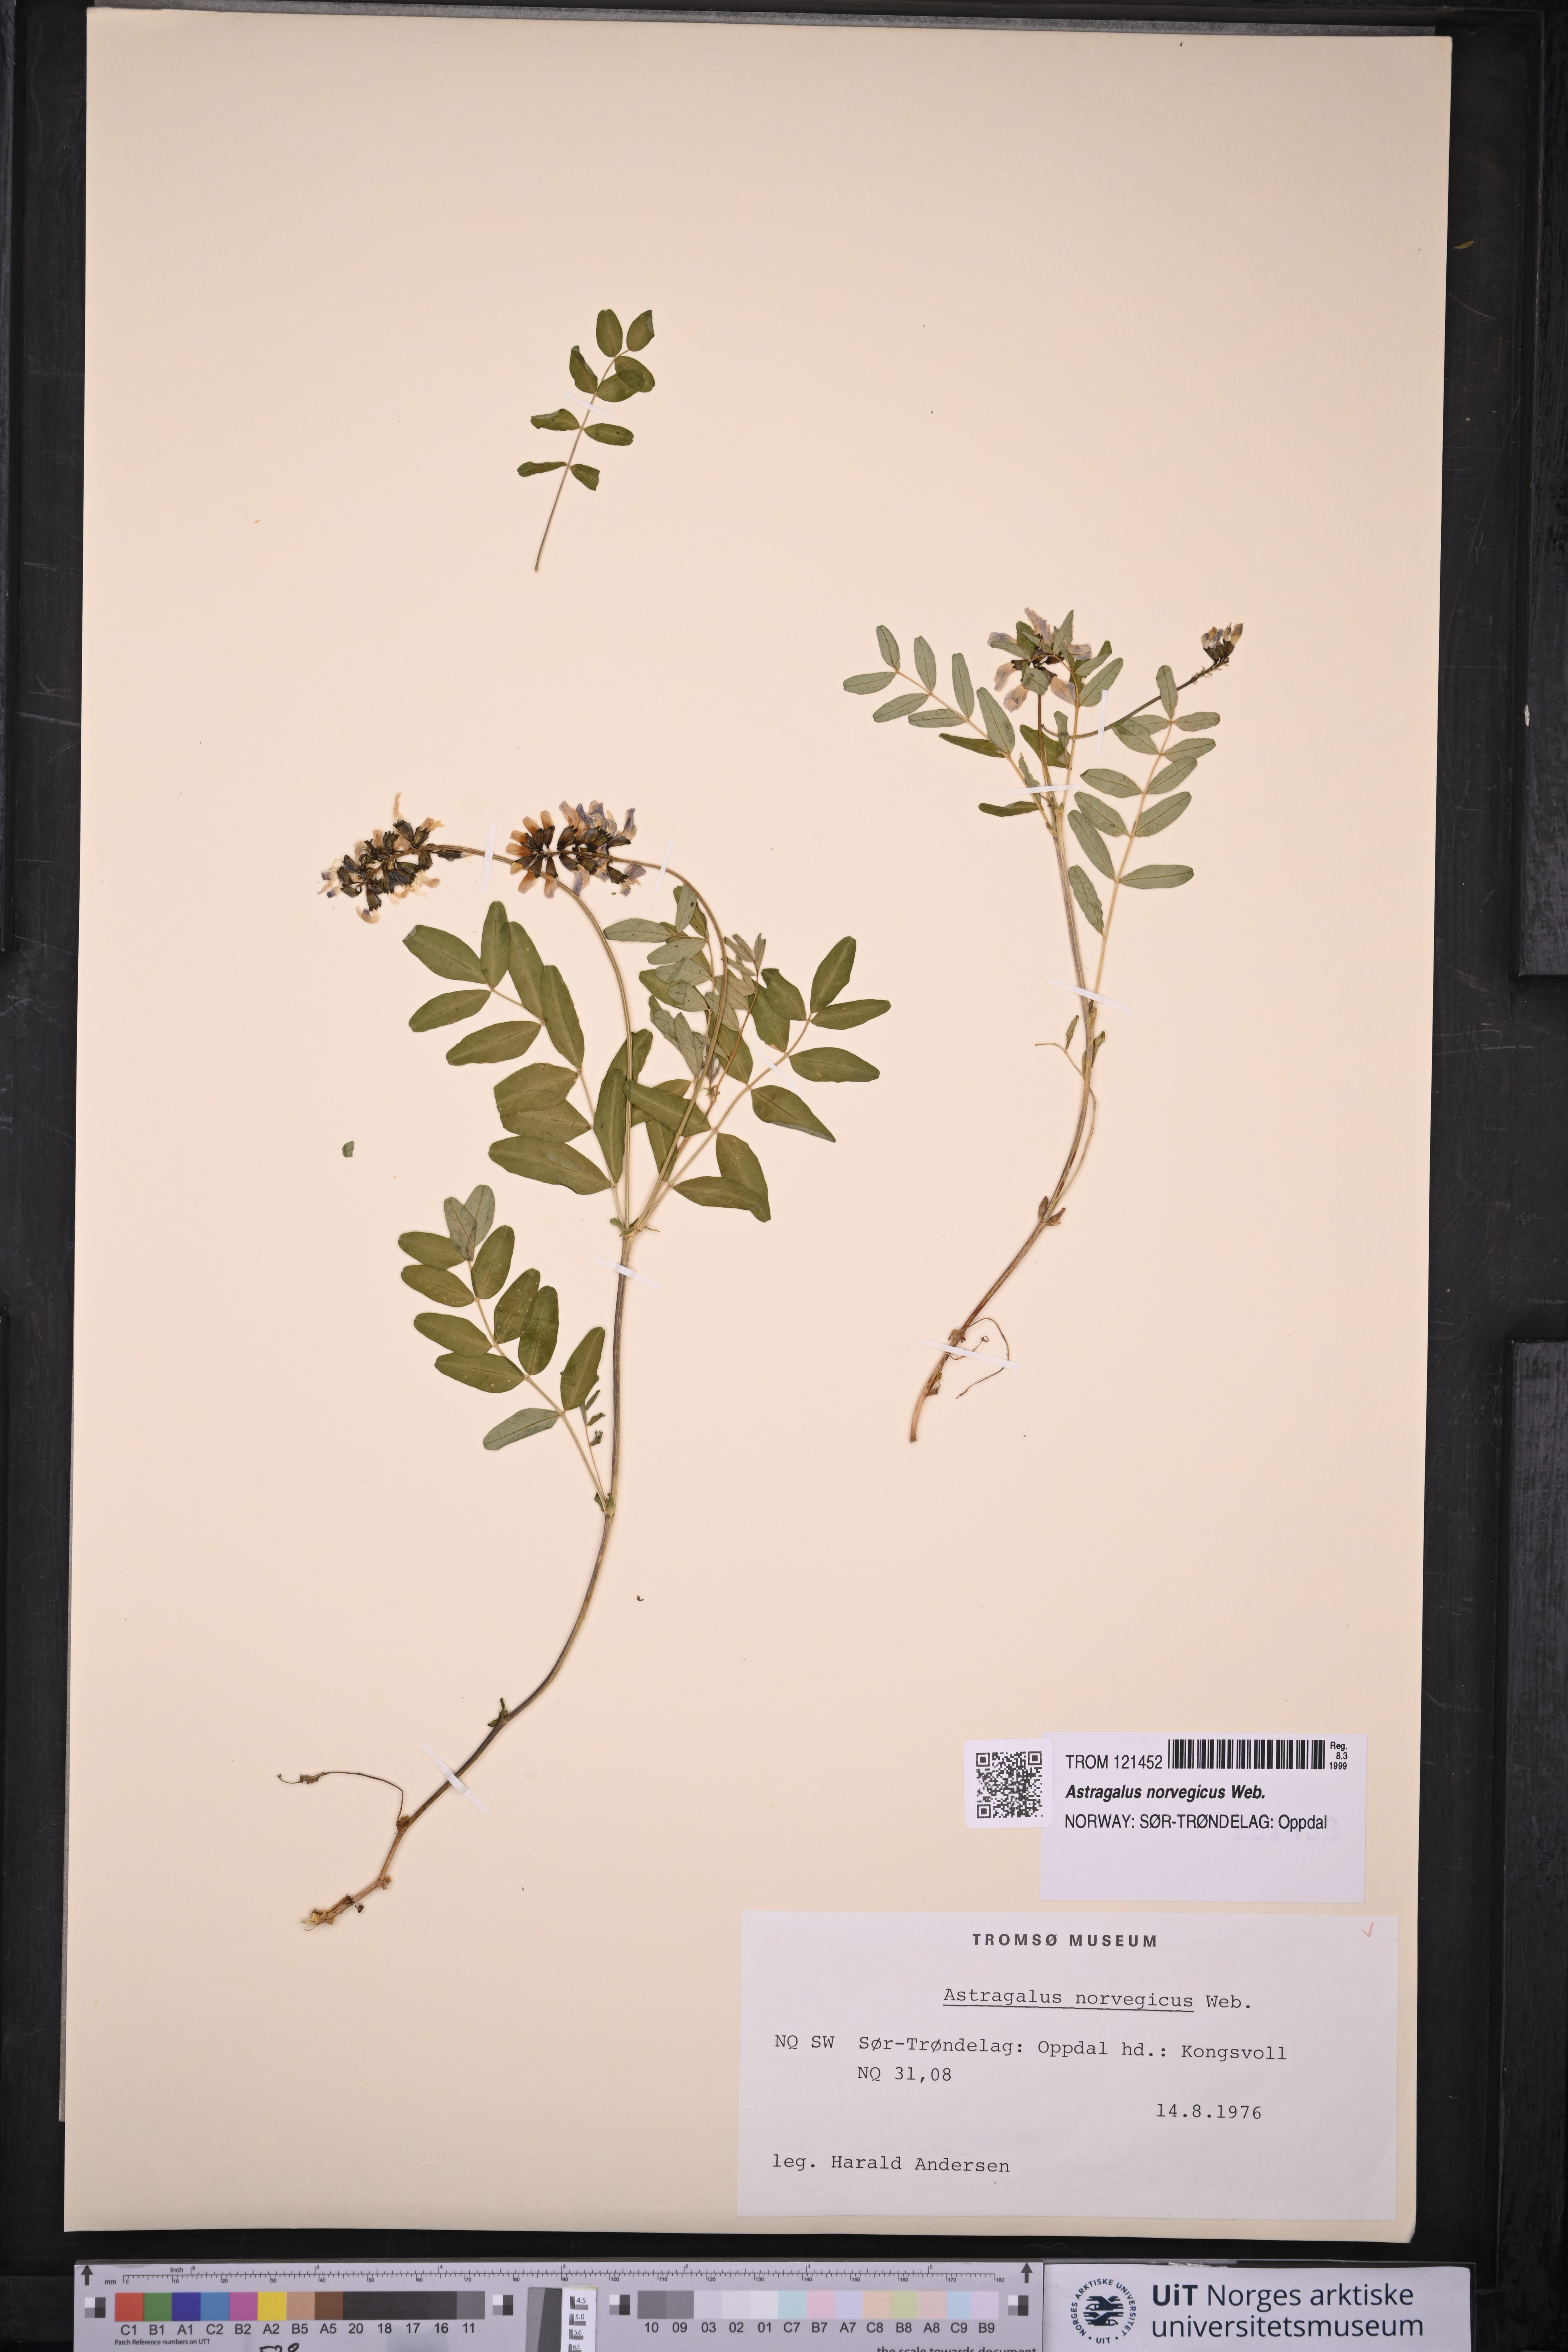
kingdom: Plantae
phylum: Tracheophyta
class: Magnoliopsida
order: Fabales
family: Fabaceae
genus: Astragalus
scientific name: Astragalus norvegicus
